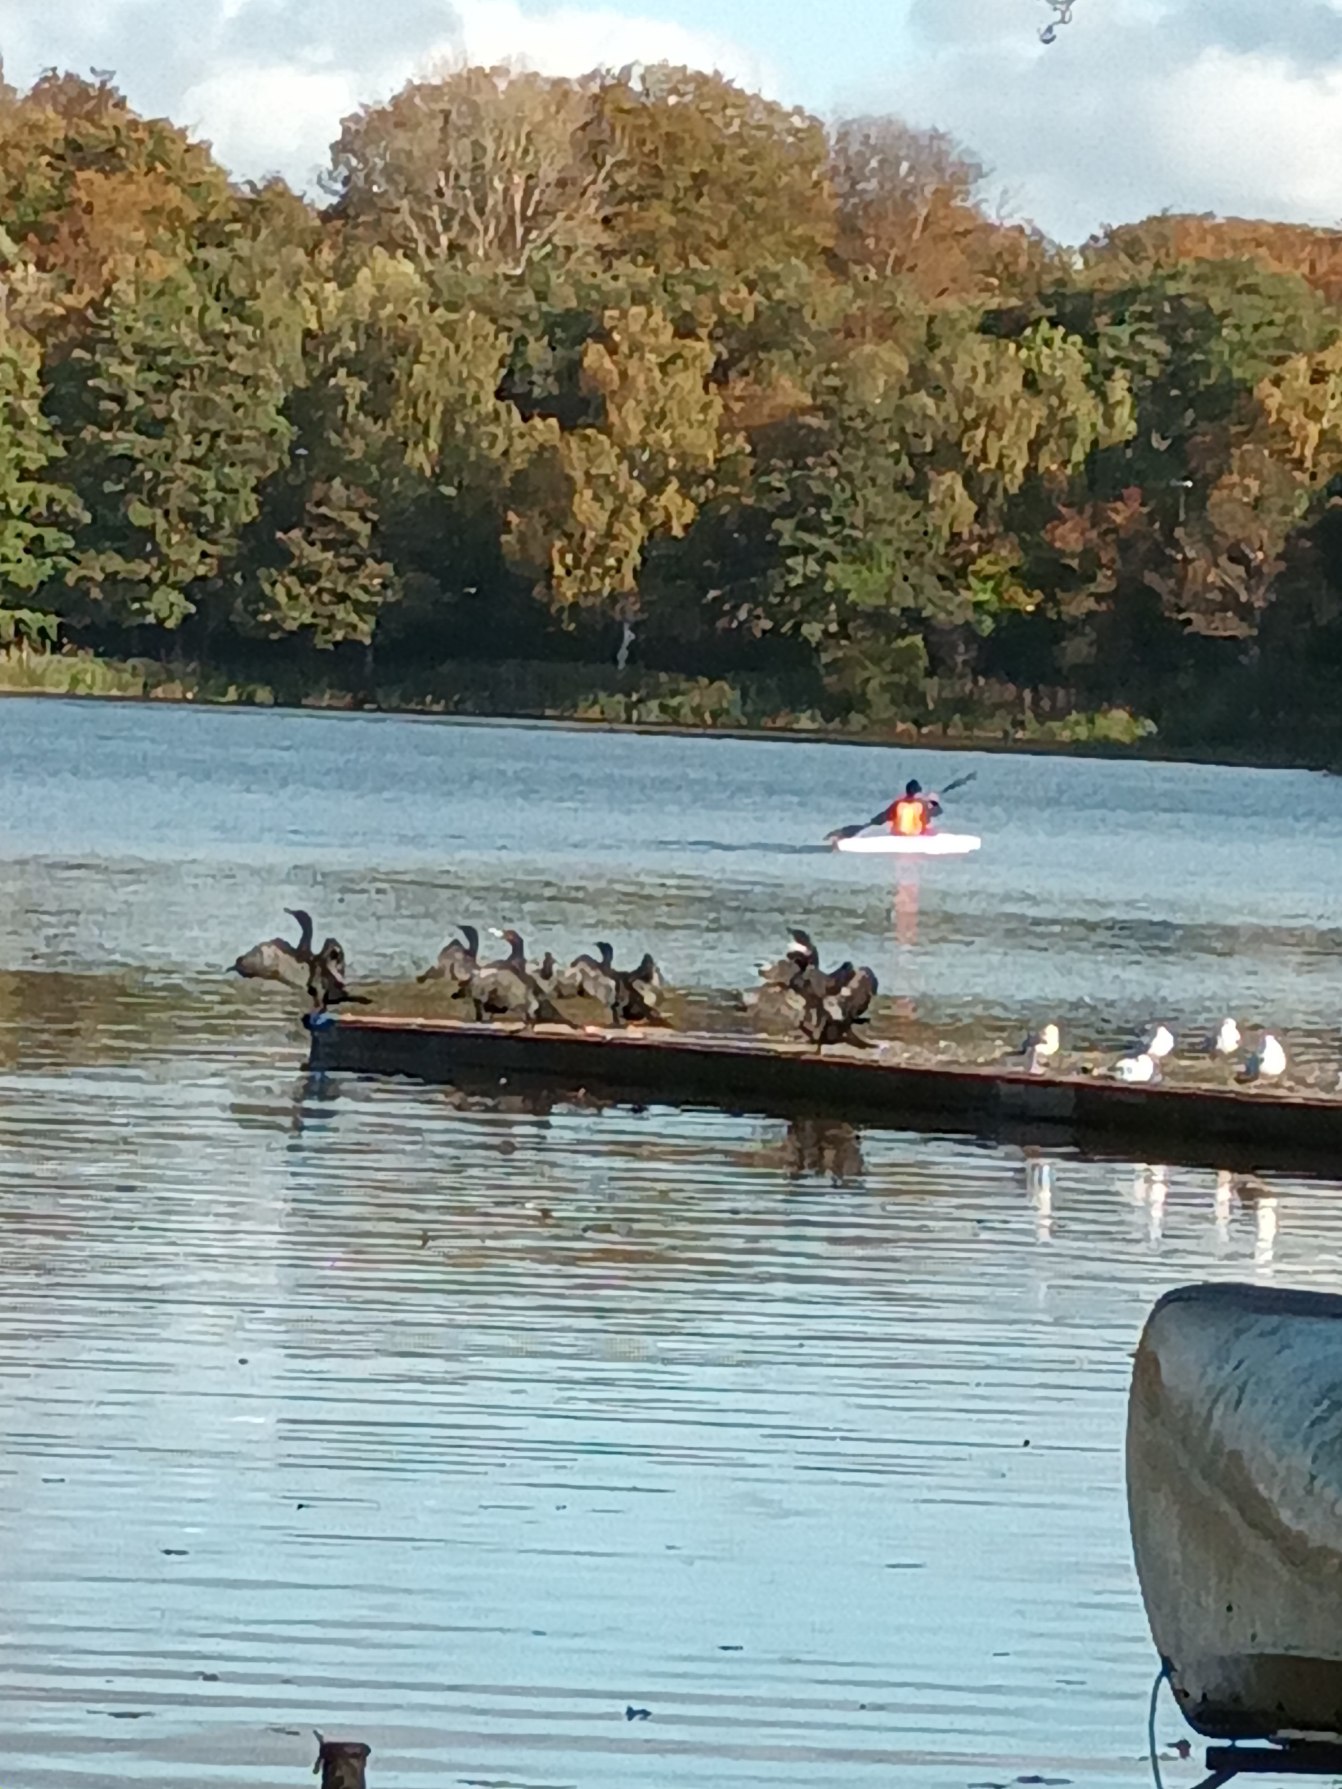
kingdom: Animalia
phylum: Chordata
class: Aves
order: Suliformes
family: Phalacrocoracidae
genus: Phalacrocorax
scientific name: Phalacrocorax carbo
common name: Skarv
